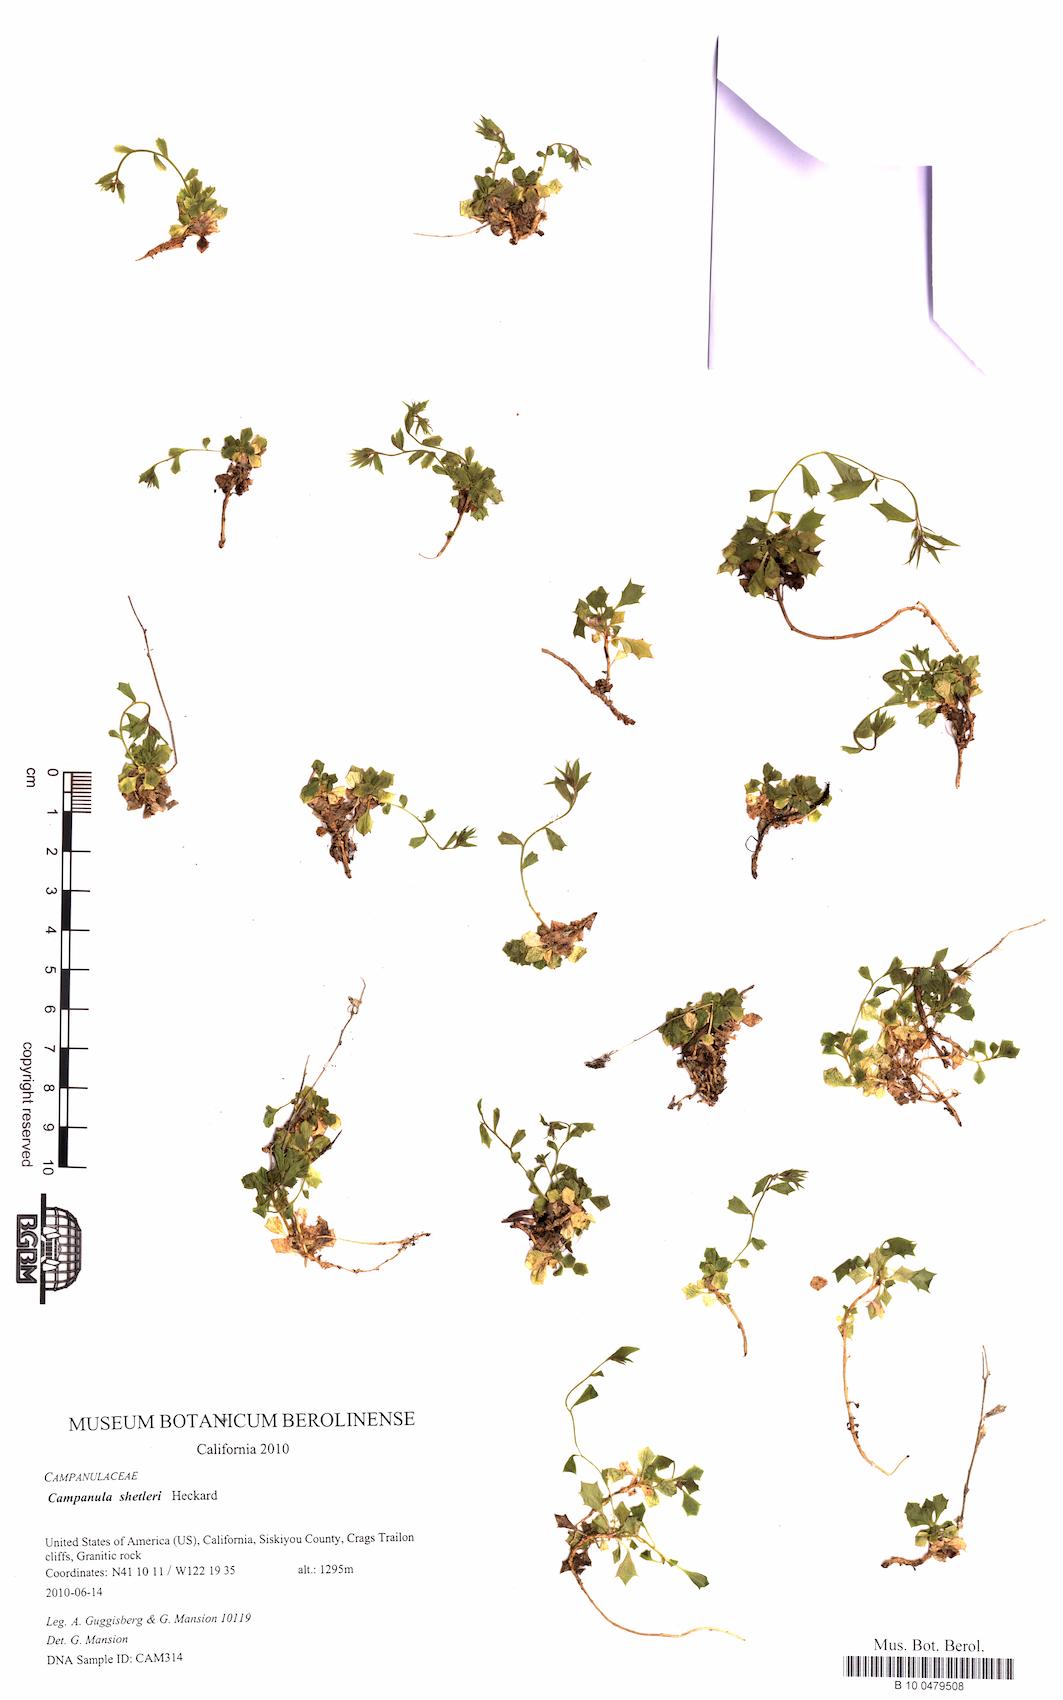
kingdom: Plantae
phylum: Tracheophyta
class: Magnoliopsida
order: Asterales
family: Campanulaceae
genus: Campanula
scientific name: Campanula shetleri
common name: Castle crag harebell
